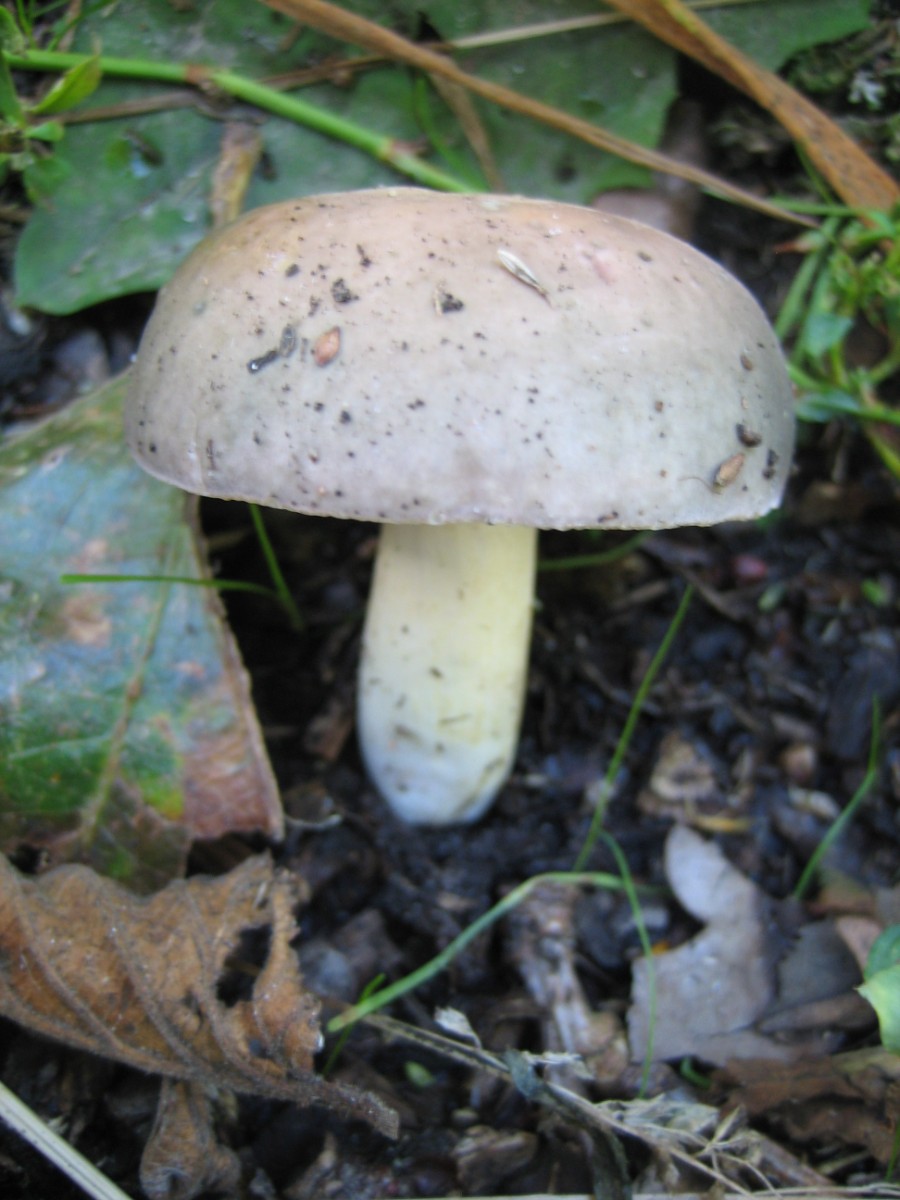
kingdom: Fungi
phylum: Basidiomycota
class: Agaricomycetes
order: Russulales
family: Russulaceae
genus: Russula
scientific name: Russula cyanoxantha
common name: broget skørhat
